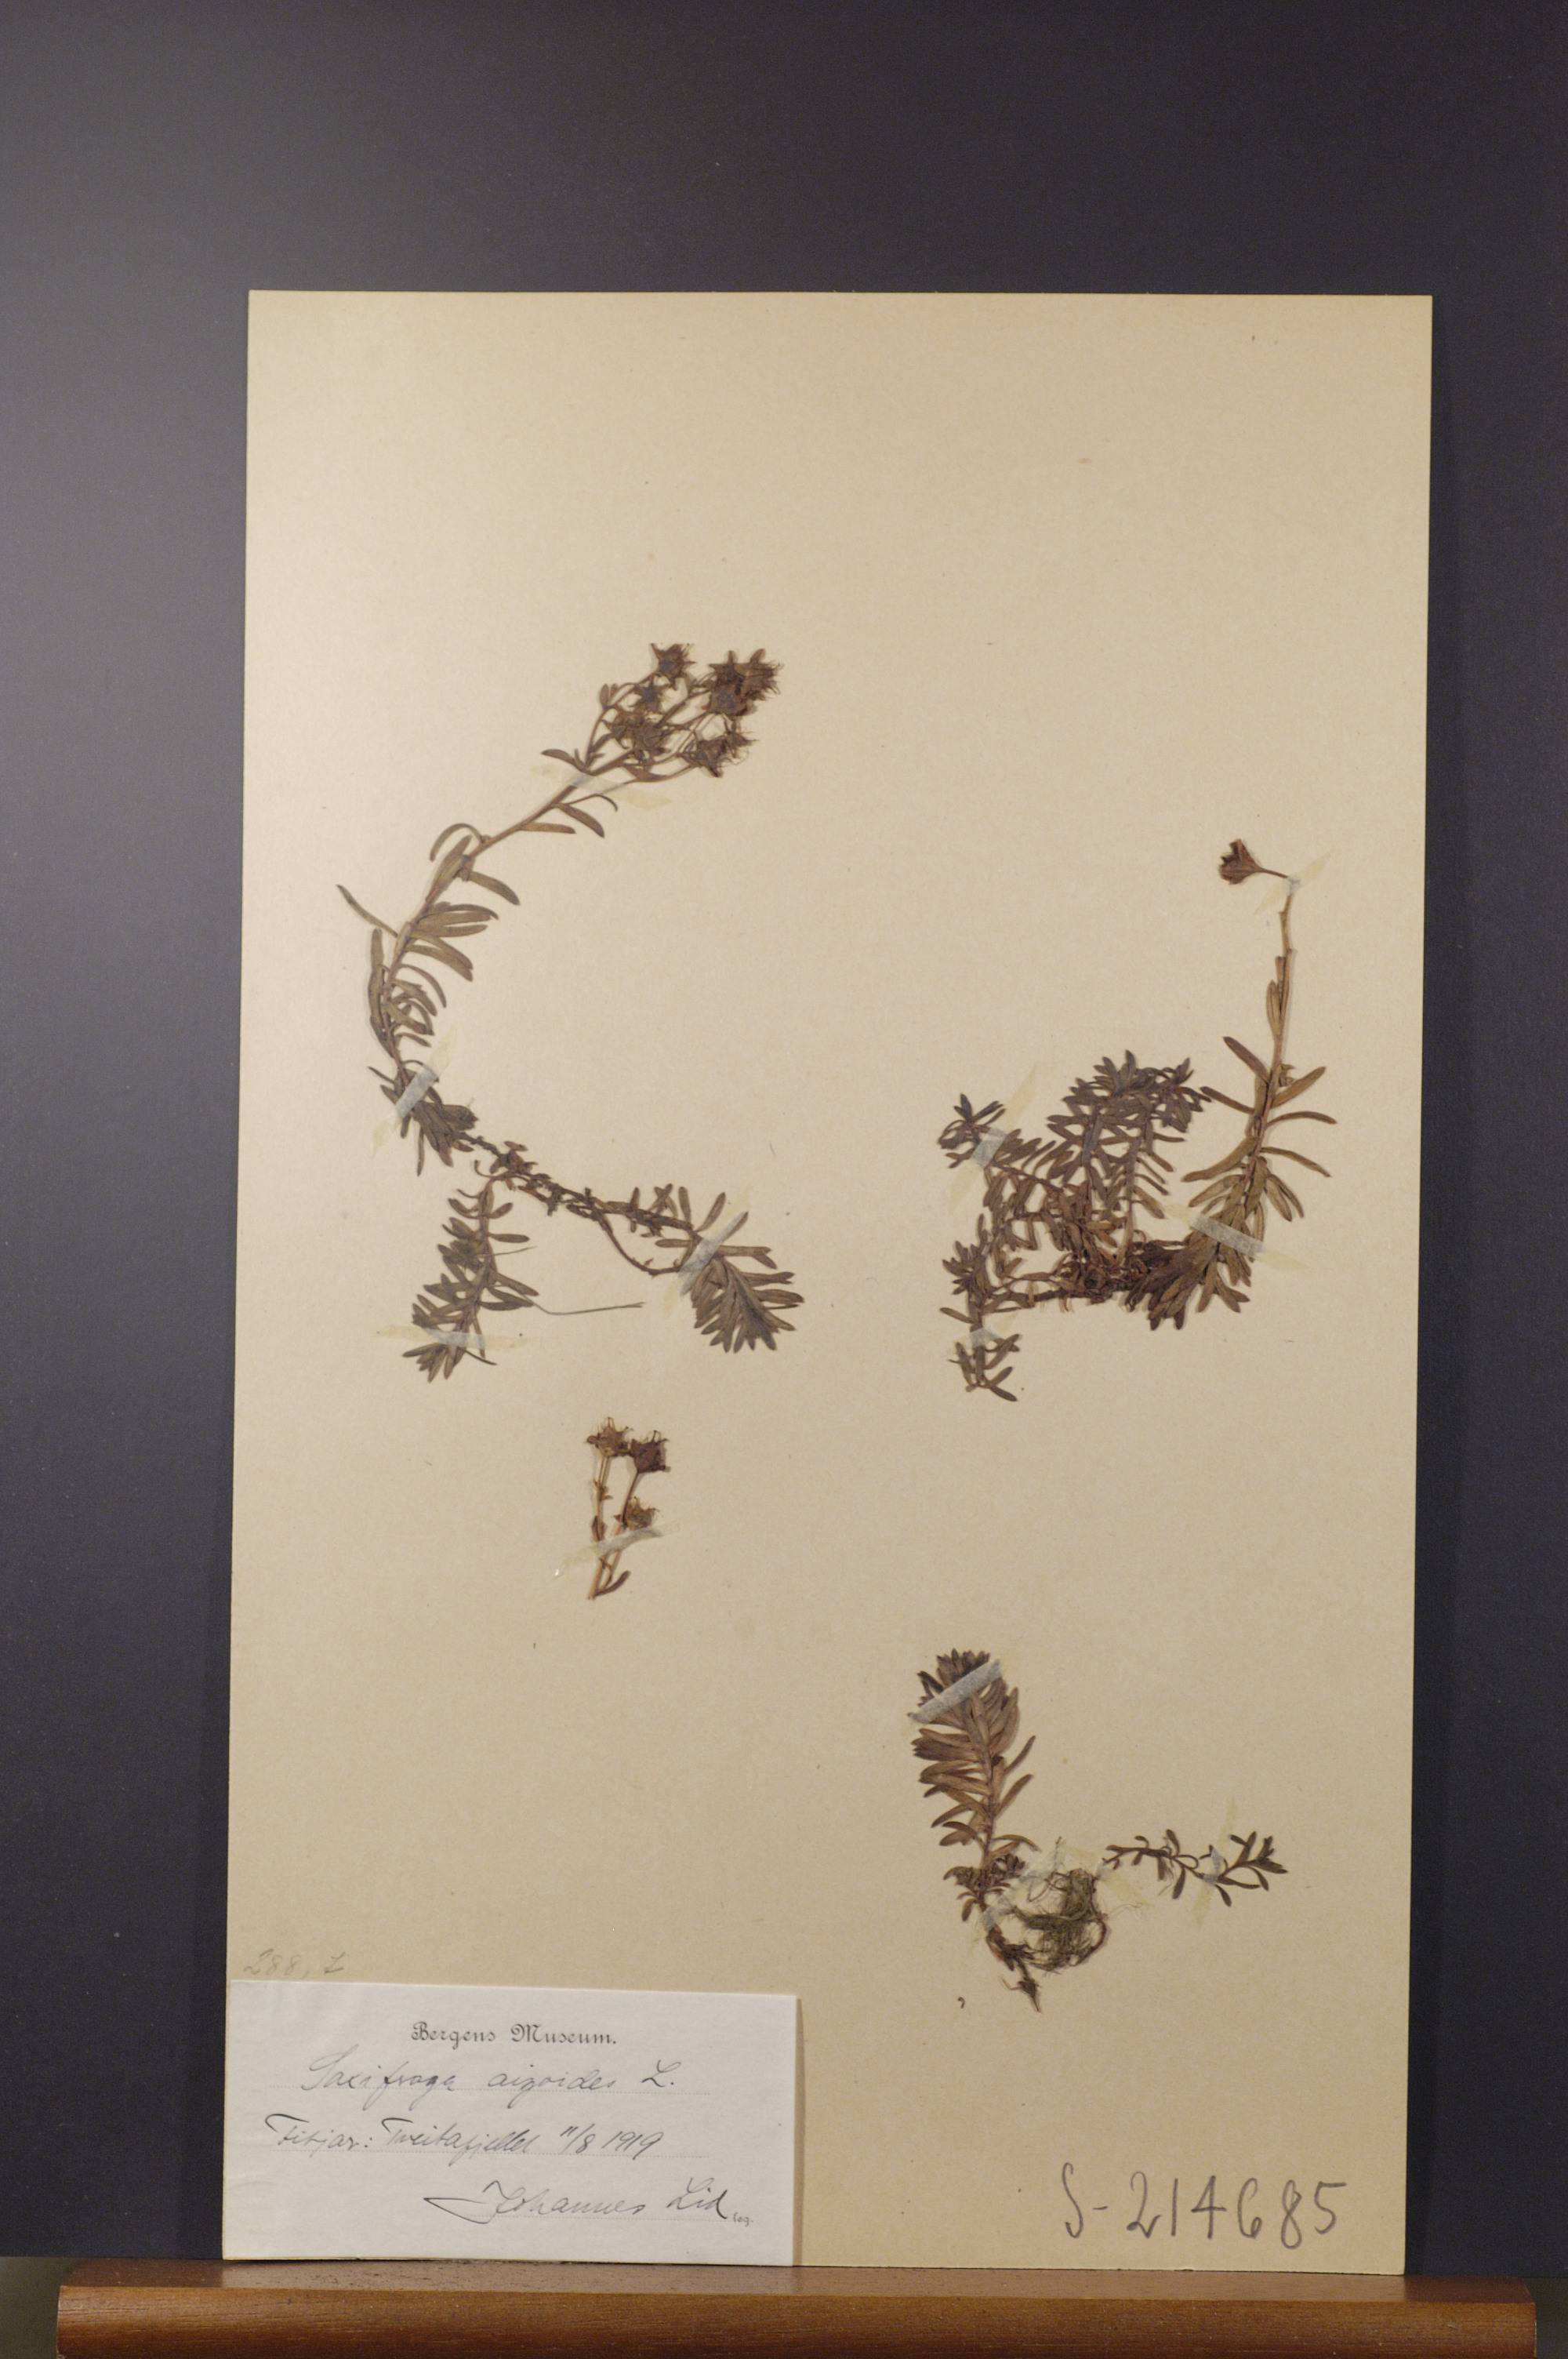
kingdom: Plantae
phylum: Tracheophyta
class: Magnoliopsida
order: Saxifragales
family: Saxifragaceae
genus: Saxifraga
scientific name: Saxifraga aizoides
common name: Yellow mountain saxifrage
